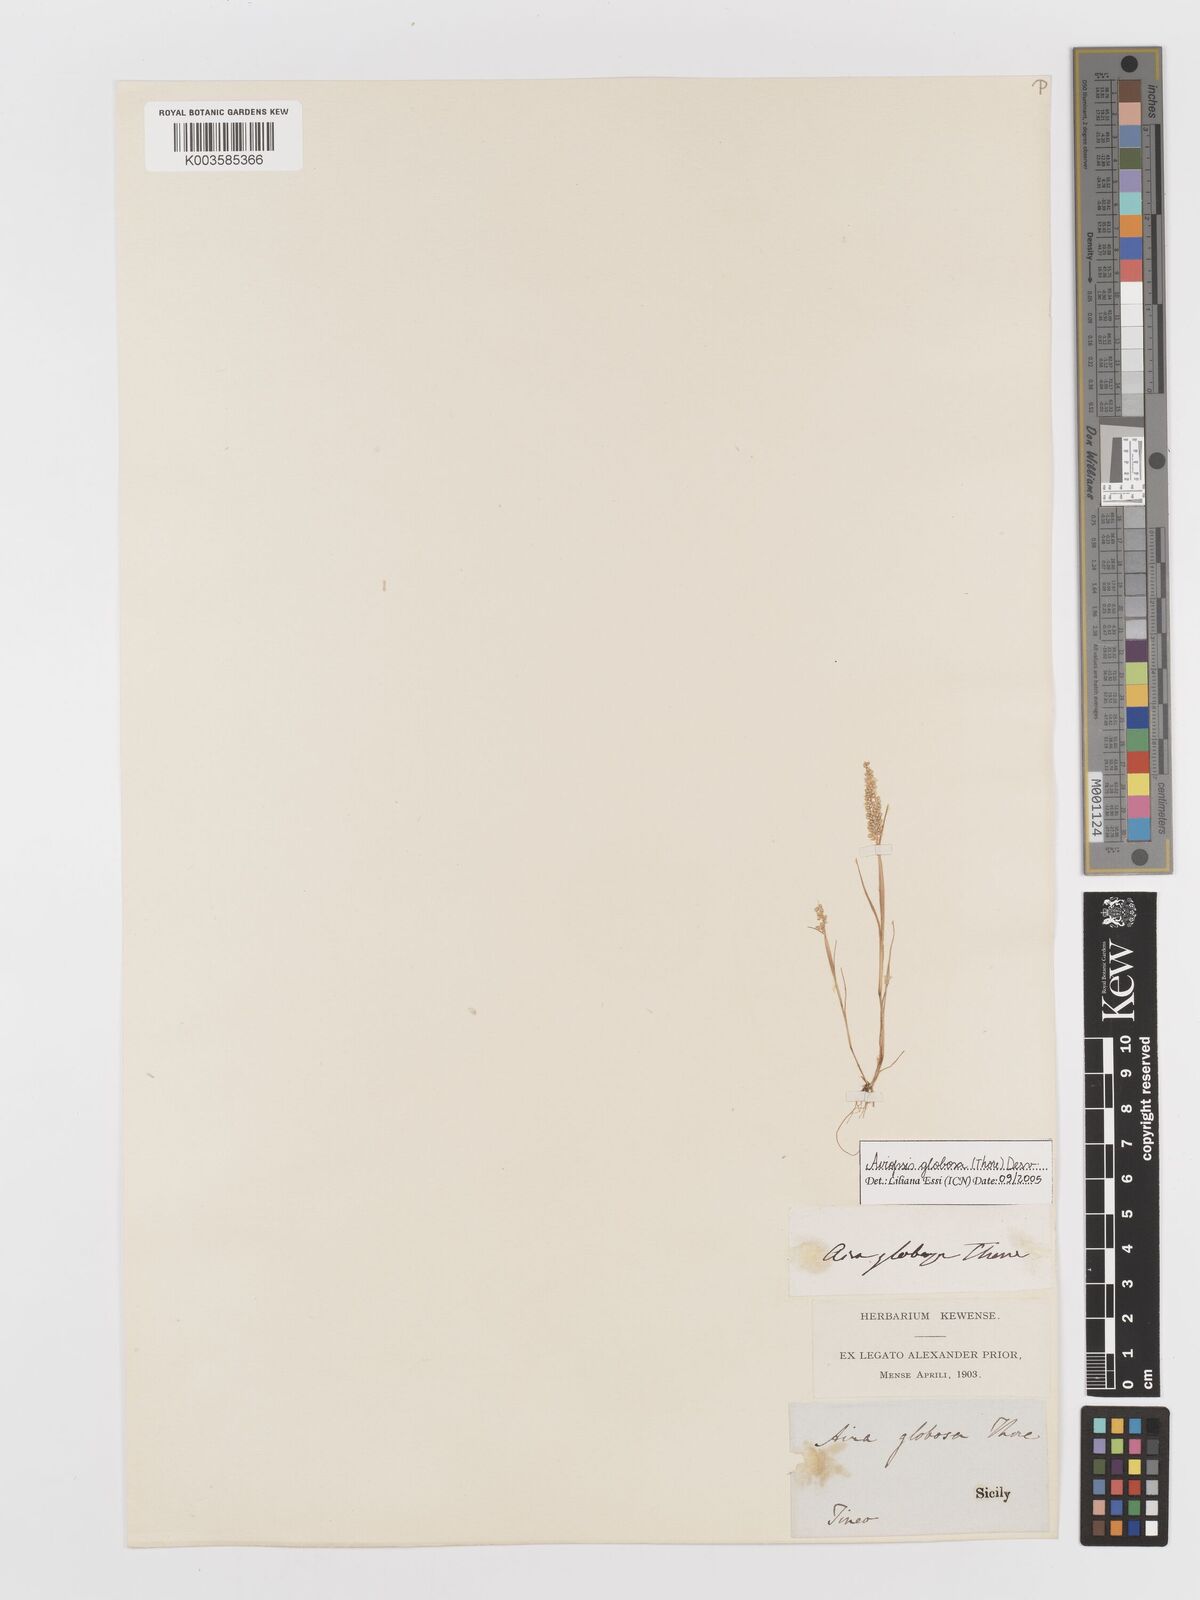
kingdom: Plantae
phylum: Tracheophyta
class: Liliopsida
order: Poales
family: Poaceae
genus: Airopsis
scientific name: Airopsis tenella
